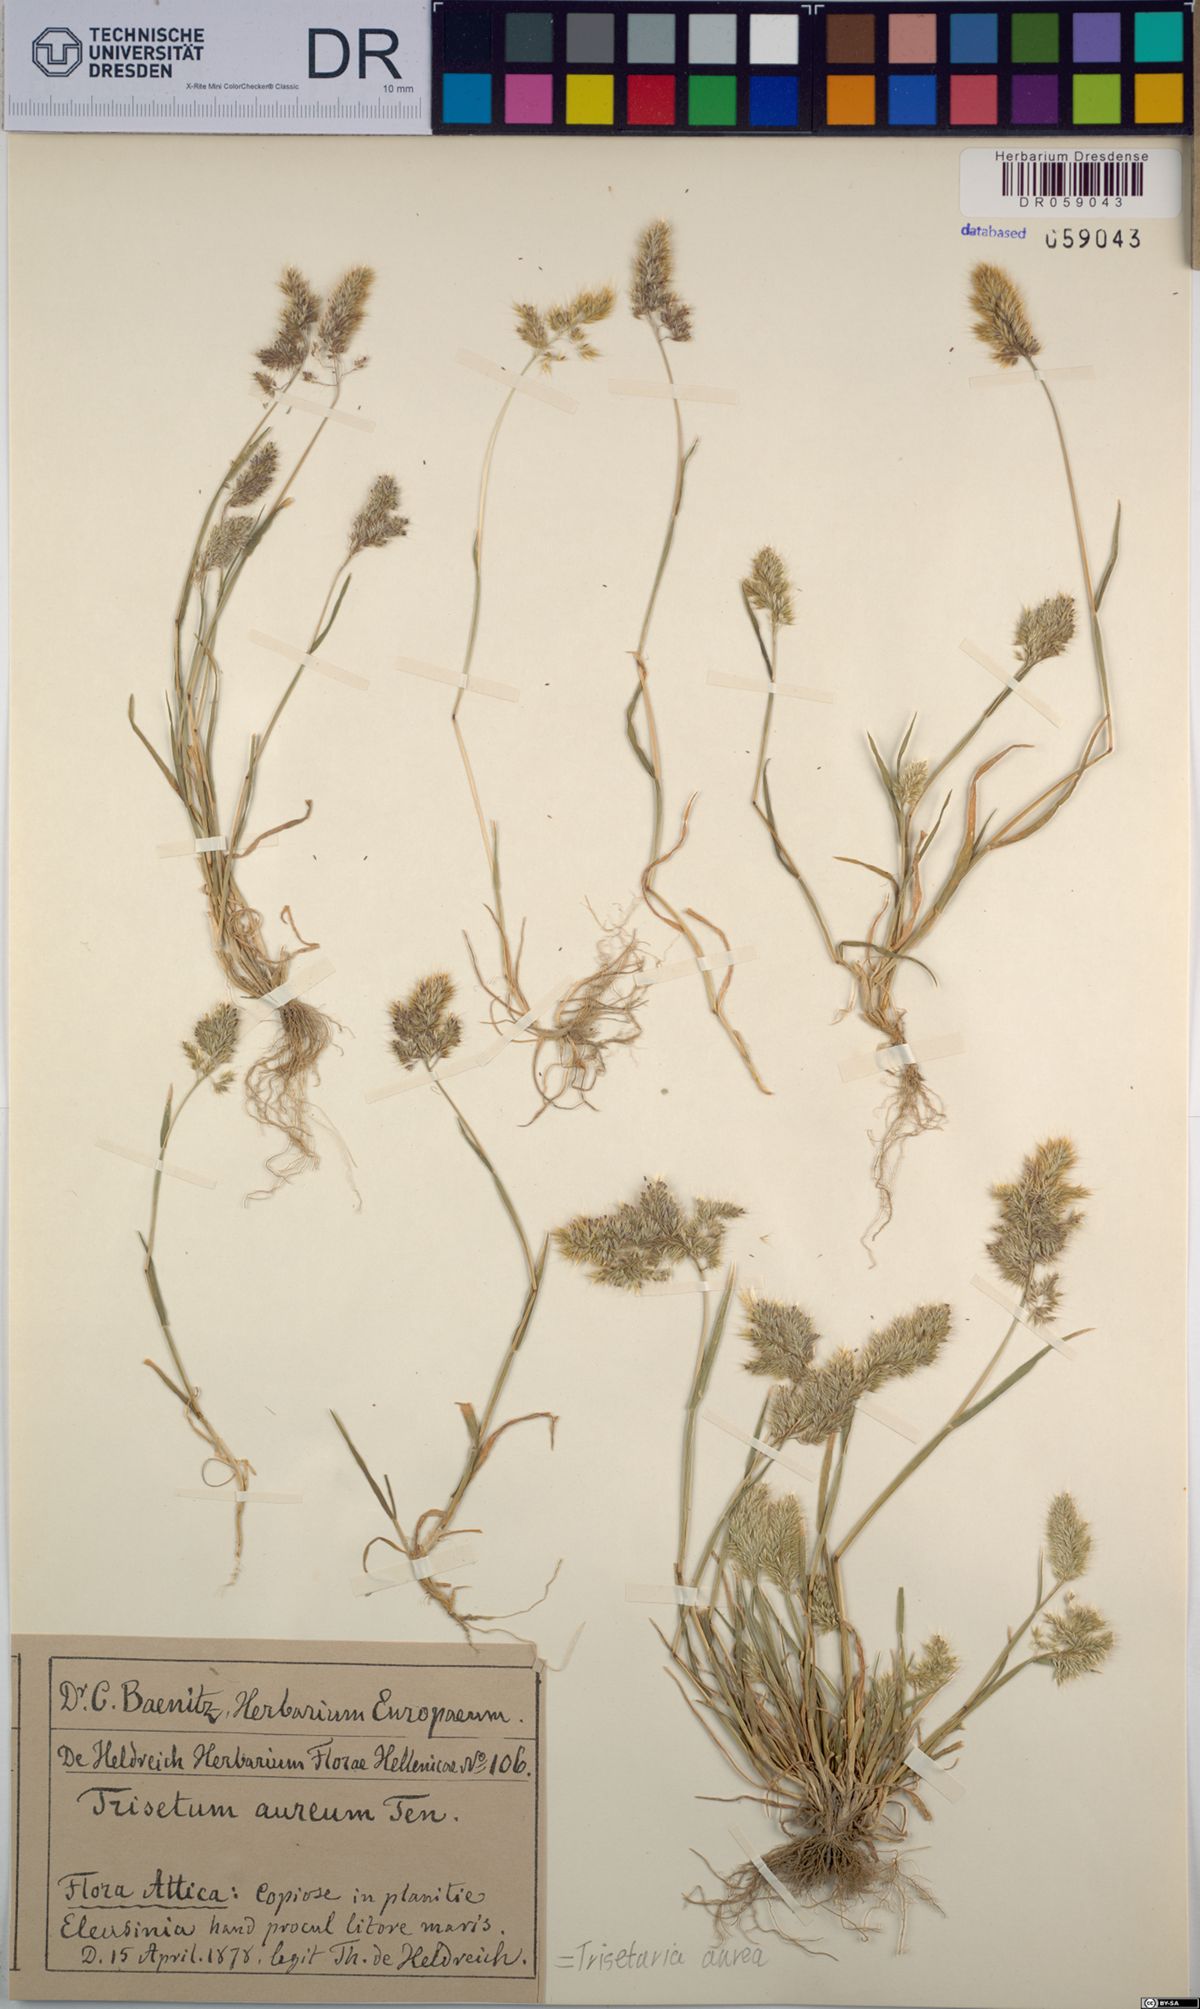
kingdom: Plantae
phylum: Tracheophyta
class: Liliopsida
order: Poales
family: Poaceae
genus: Trisetaria
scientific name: Trisetaria aurea
